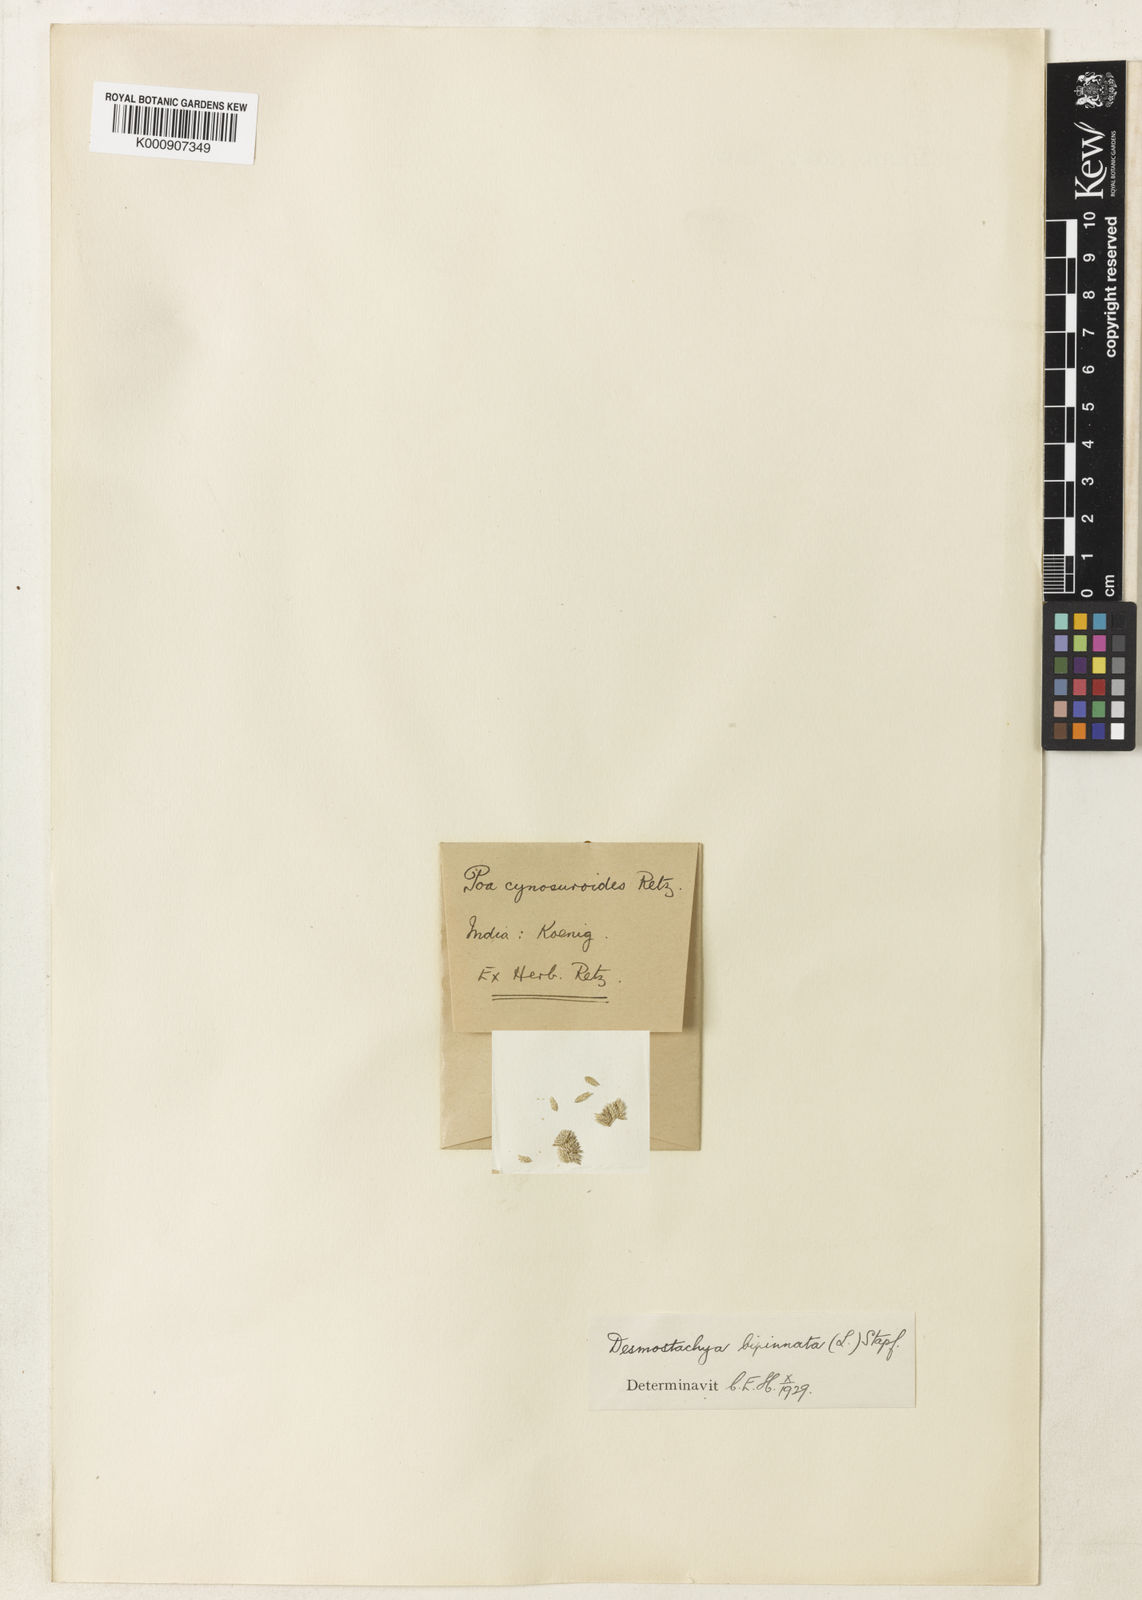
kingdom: Plantae
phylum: Tracheophyta
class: Liliopsida
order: Poales
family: Poaceae
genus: Desmostachya
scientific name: Desmostachya bipinnata
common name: Crowfoot grass
